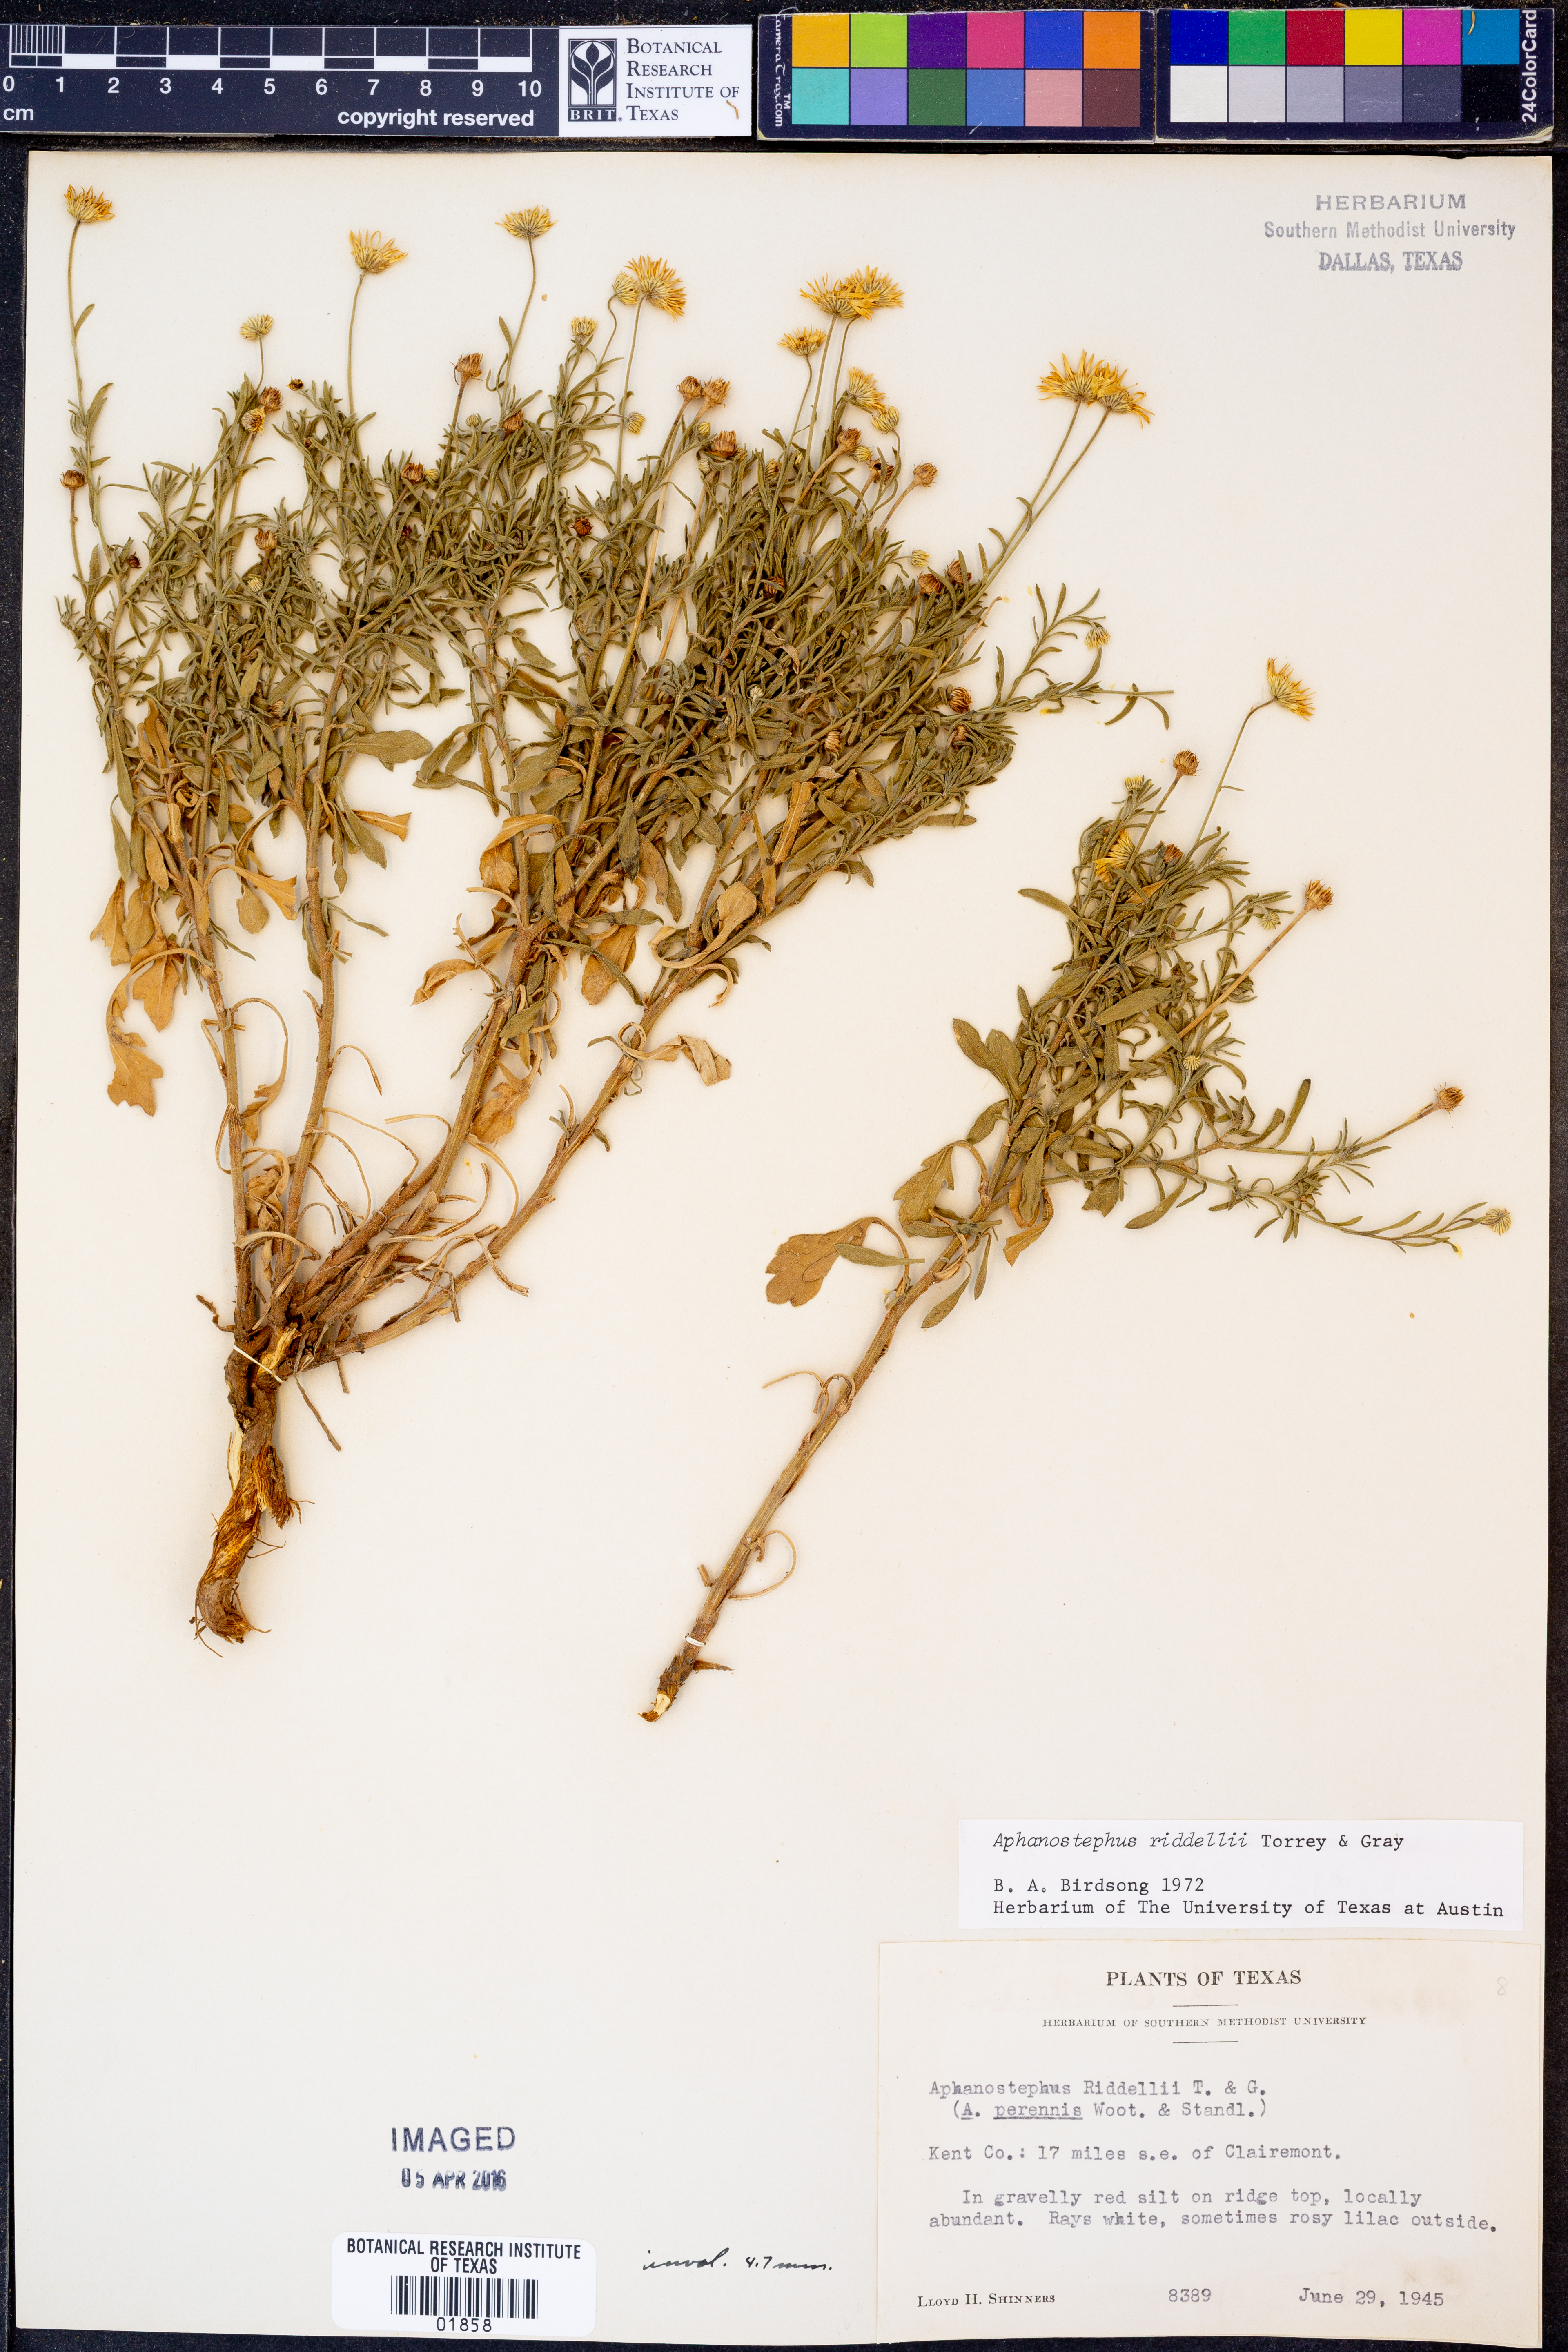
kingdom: Plantae
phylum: Tracheophyta
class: Magnoliopsida
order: Asterales
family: Asteraceae
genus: Aphanostephus
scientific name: Aphanostephus riddellii
